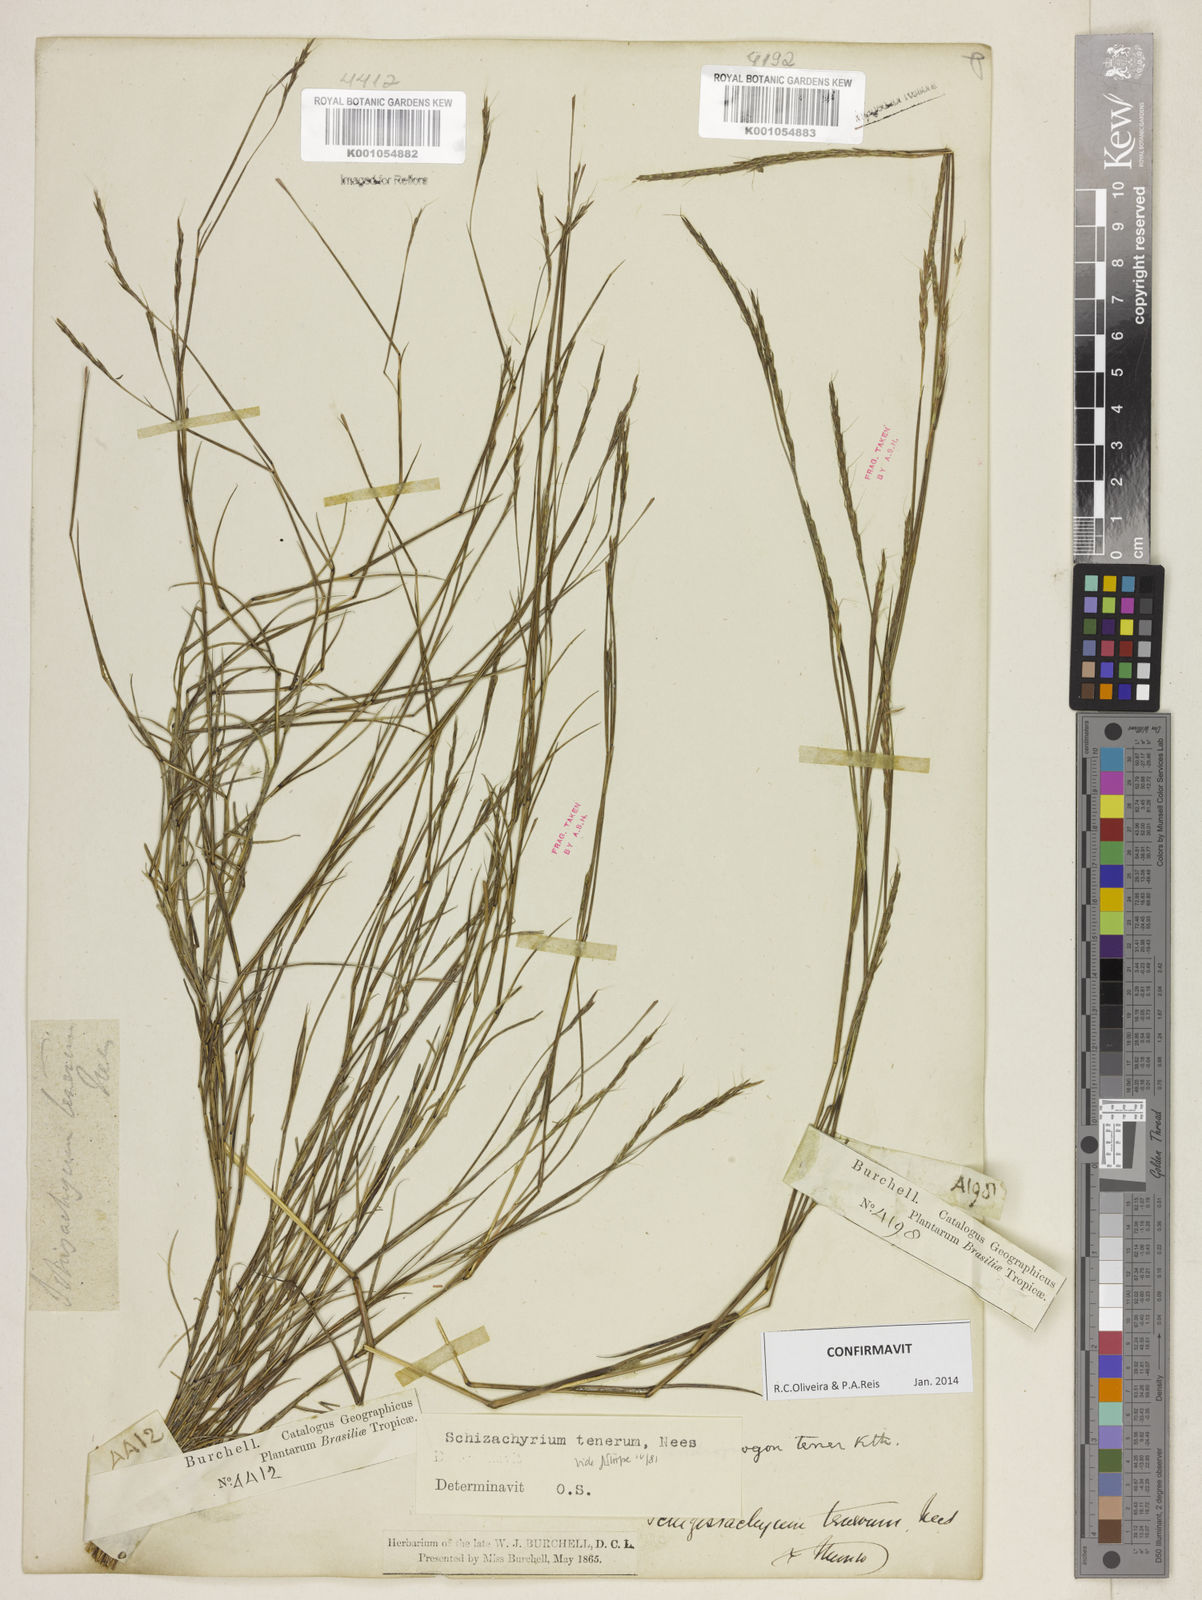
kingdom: Plantae
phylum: Tracheophyta
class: Liliopsida
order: Poales
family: Poaceae
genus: Andropogon
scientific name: Andropogon tener
